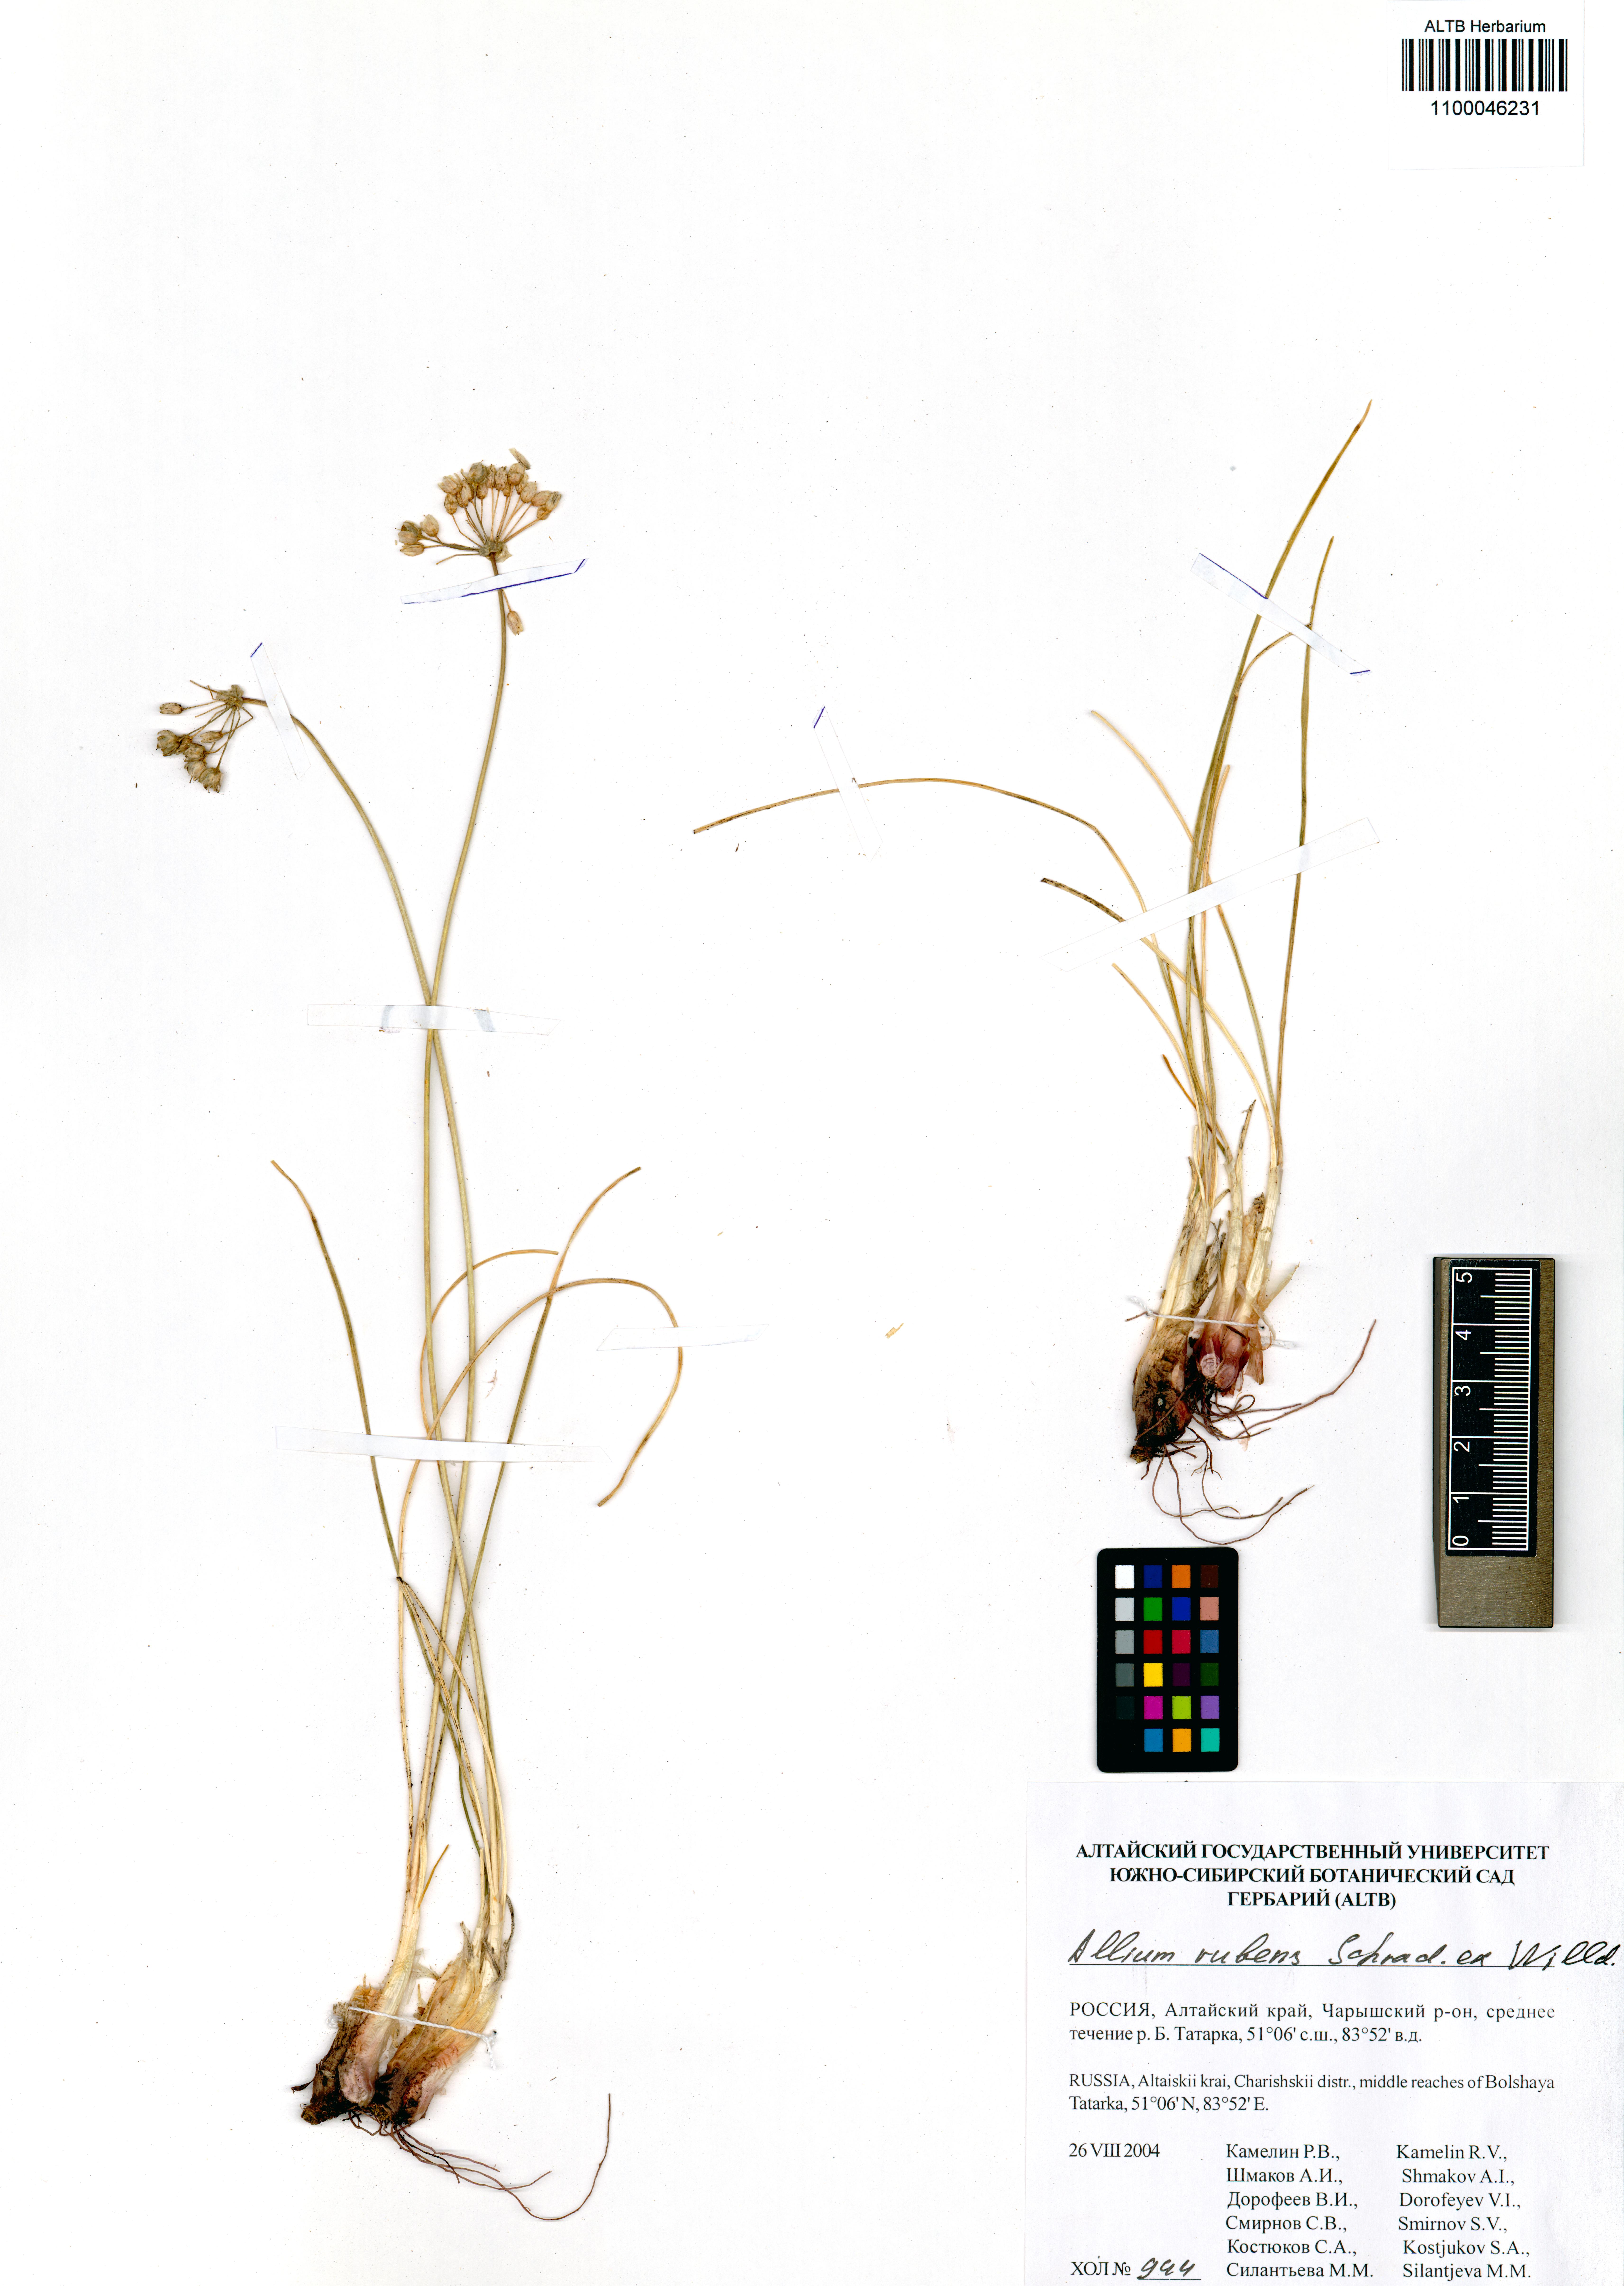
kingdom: Plantae
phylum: Tracheophyta
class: Liliopsida
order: Asparagales
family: Amaryllidaceae
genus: Allium
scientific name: Allium rubens
